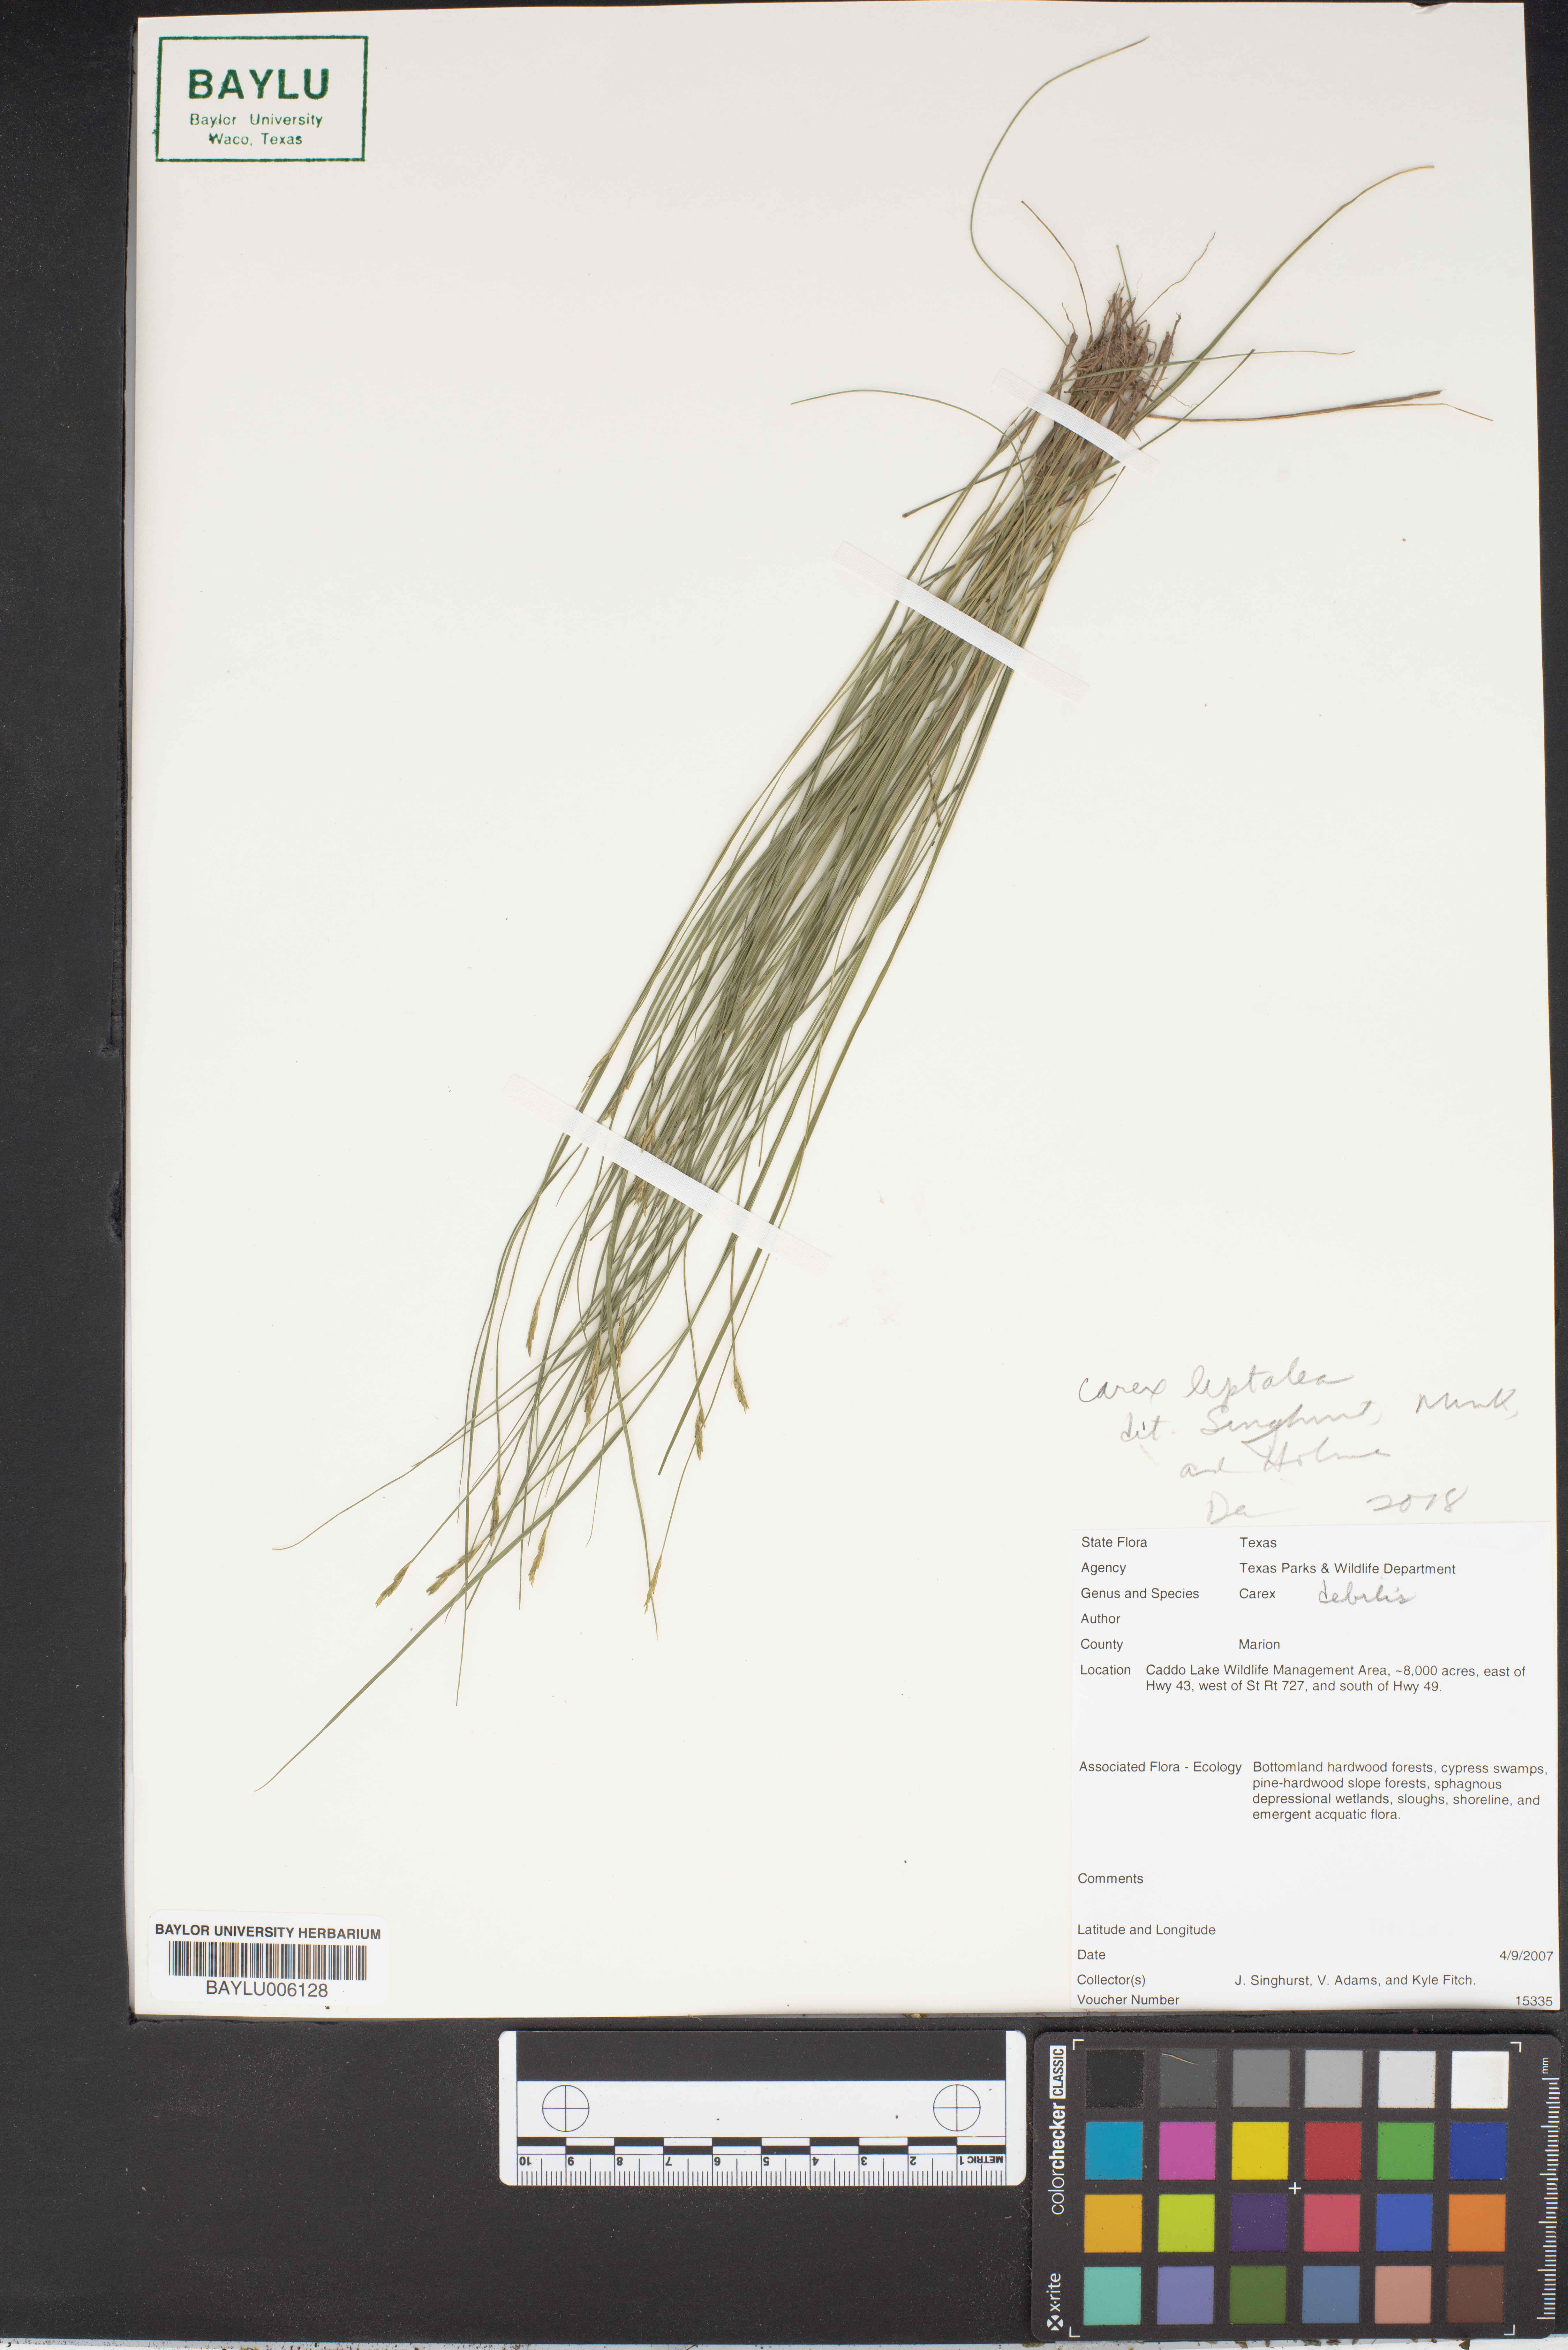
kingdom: Plantae
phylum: Tracheophyta
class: Liliopsida
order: Poales
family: Cyperaceae
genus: Carex
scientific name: Carex debilis
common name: White-edge sedge
